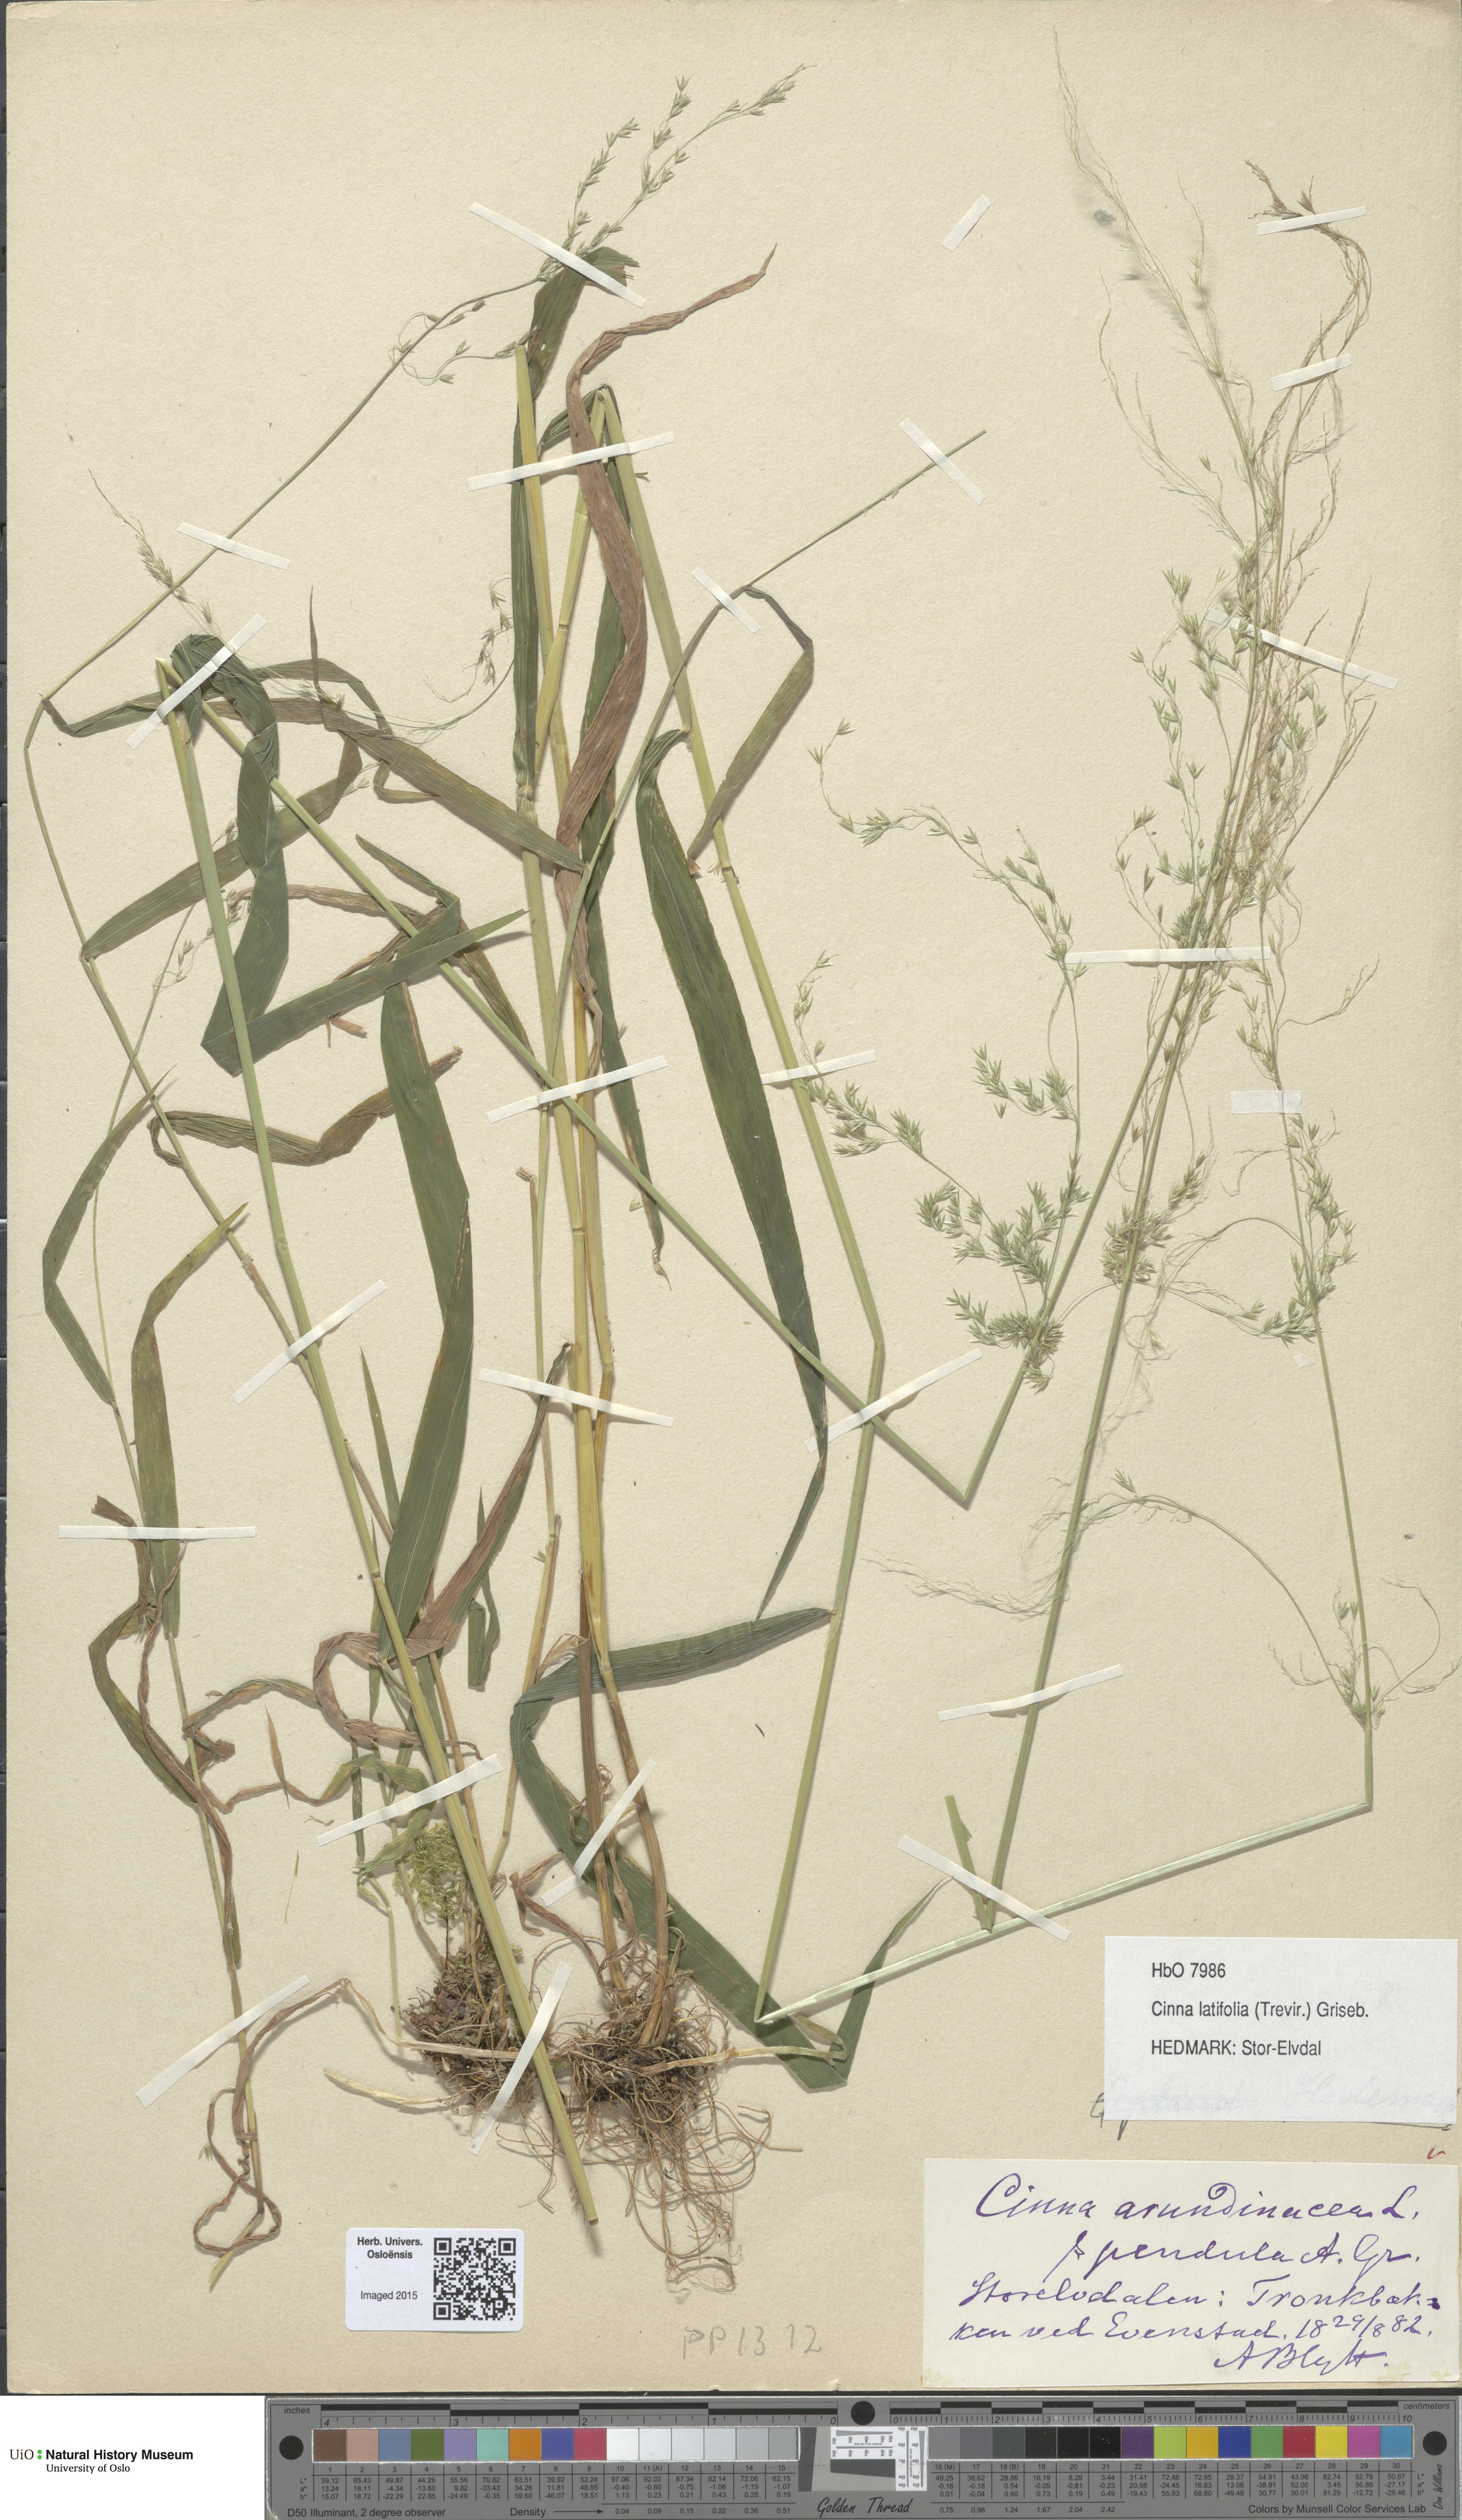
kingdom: Plantae
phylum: Tracheophyta
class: Liliopsida
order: Poales
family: Poaceae
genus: Cinna
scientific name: Cinna latifolia
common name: Drooping woodreed
